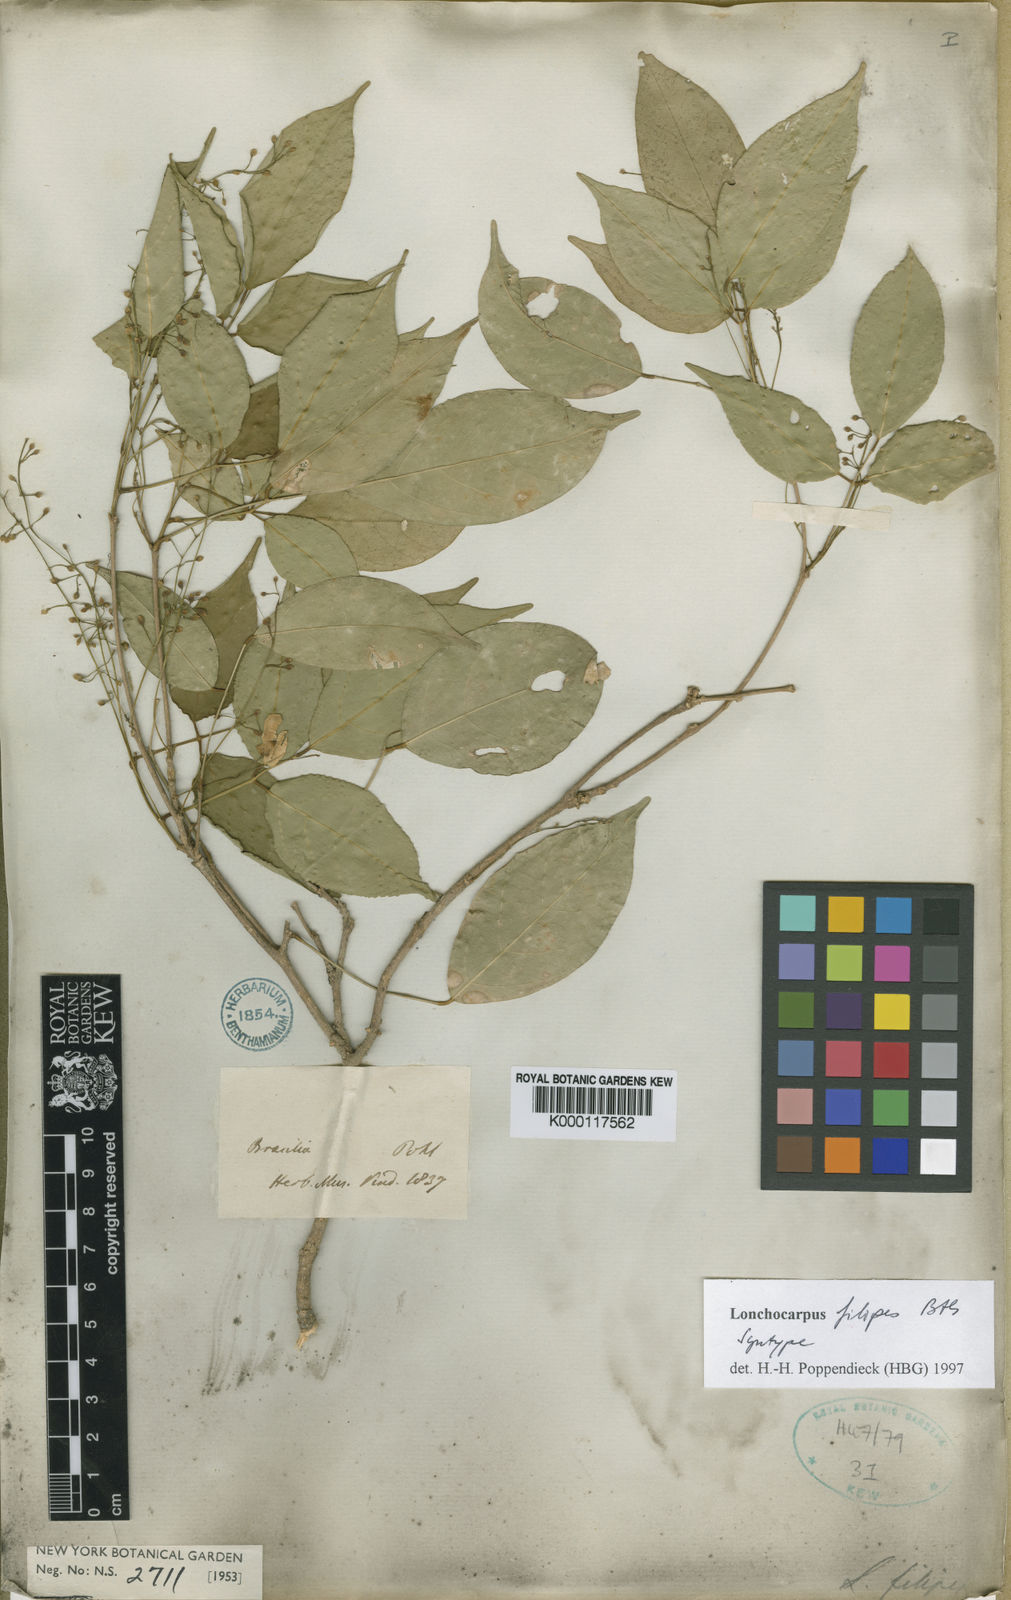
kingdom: Plantae
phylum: Tracheophyta
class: Magnoliopsida
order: Fabales
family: Fabaceae
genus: Muellera
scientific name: Muellera filipes
